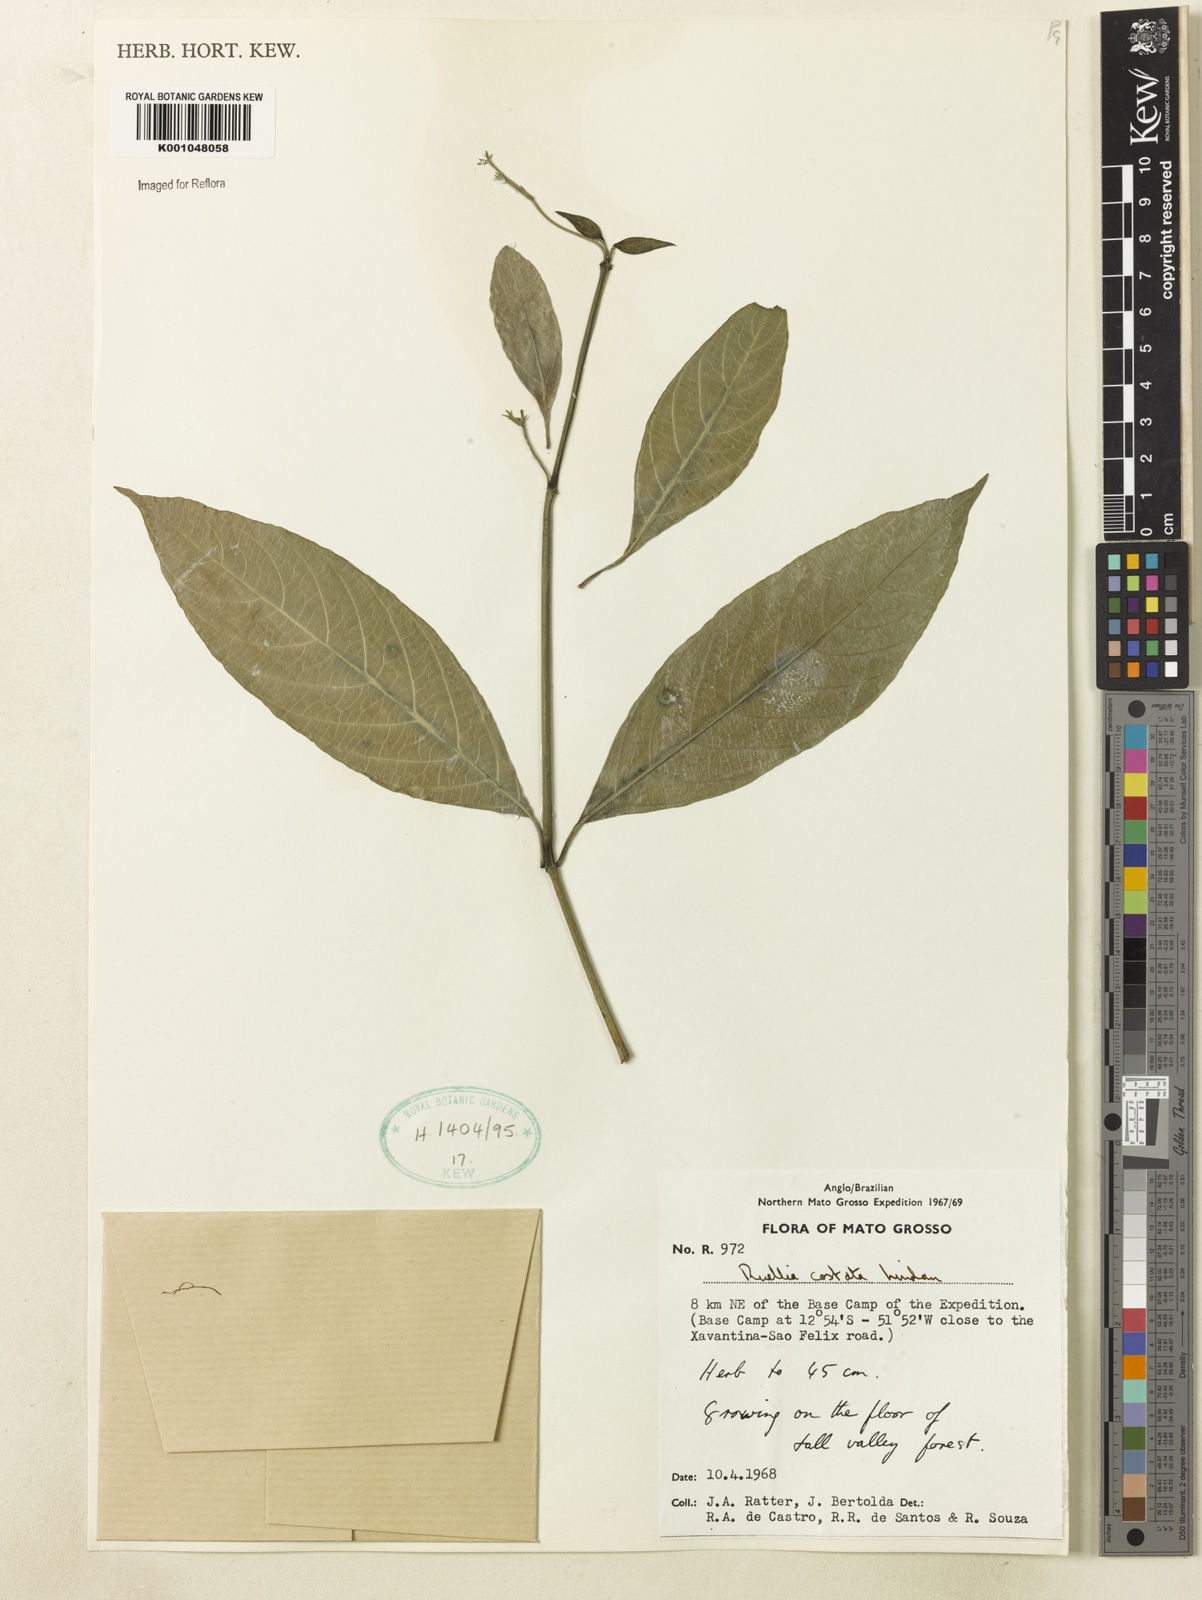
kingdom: Plantae
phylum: Tracheophyta
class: Magnoliopsida
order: Lamiales
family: Acanthaceae
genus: Ruellia
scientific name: Ruellia costata
